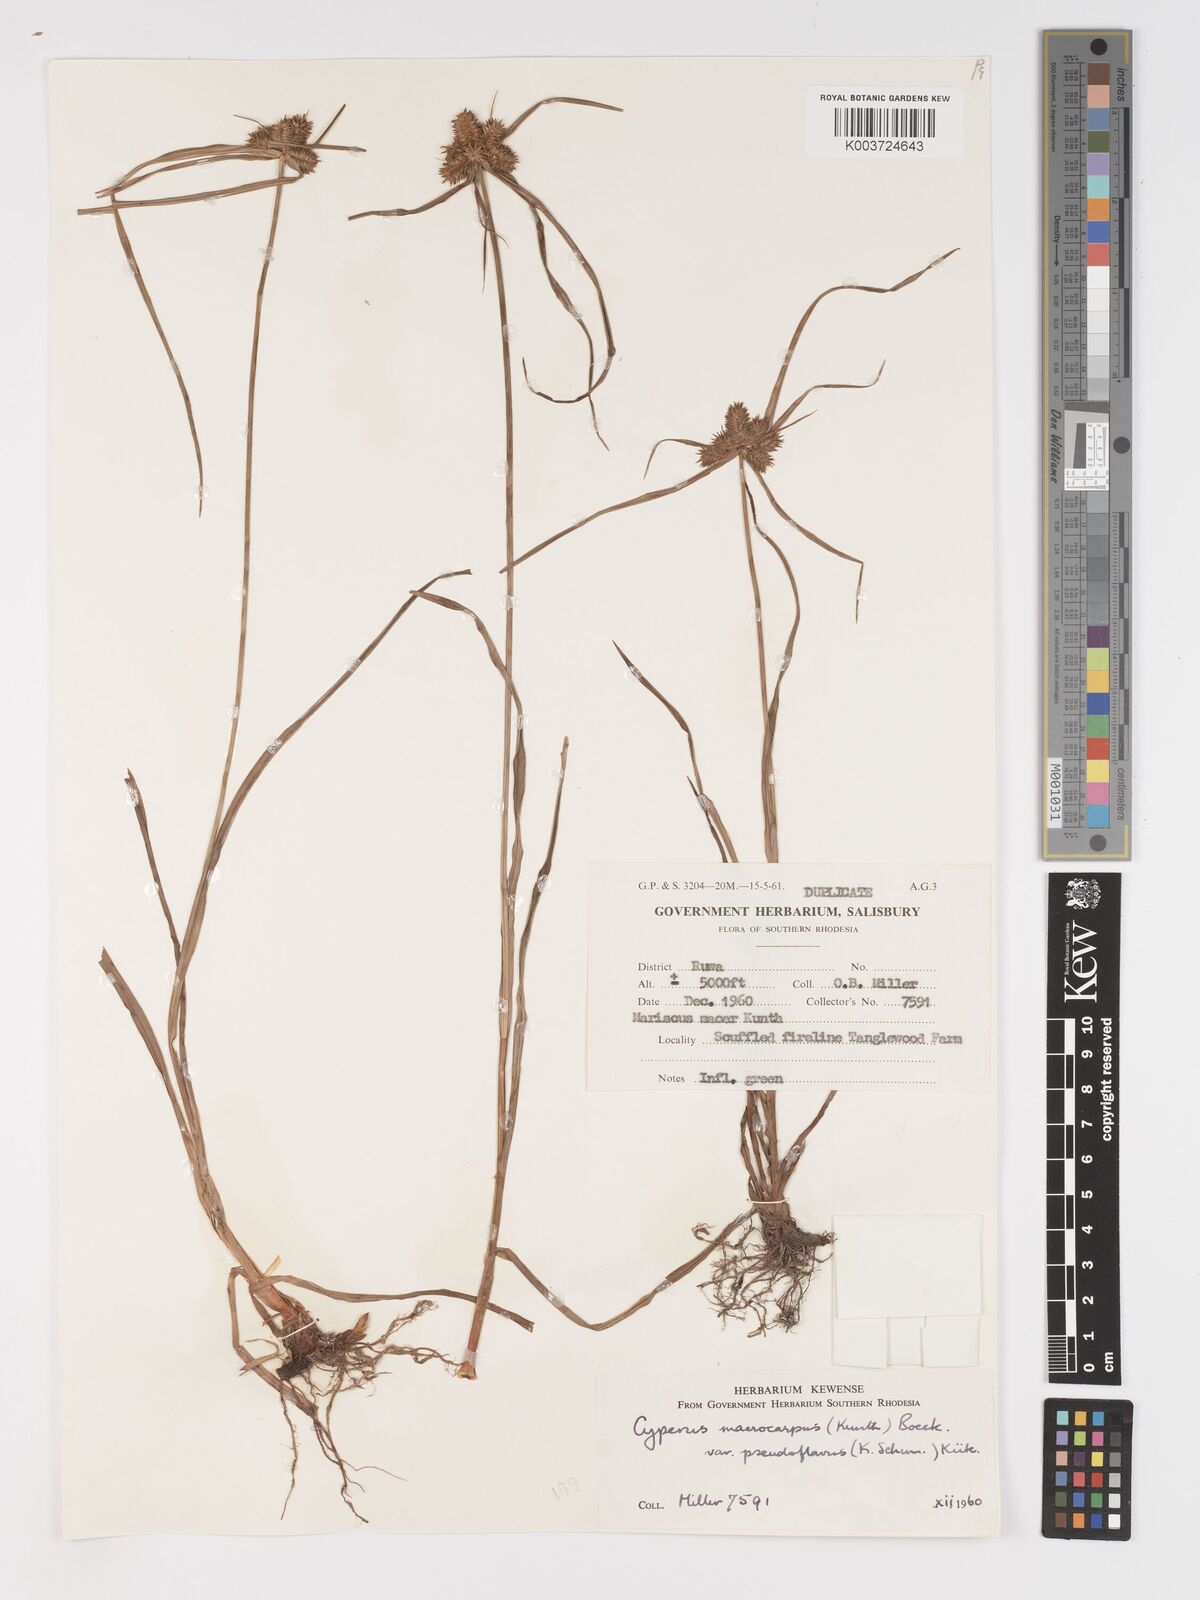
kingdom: Plantae
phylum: Tracheophyta
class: Liliopsida
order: Poales
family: Cyperaceae
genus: Cyperus
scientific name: Cyperus myrmecias
